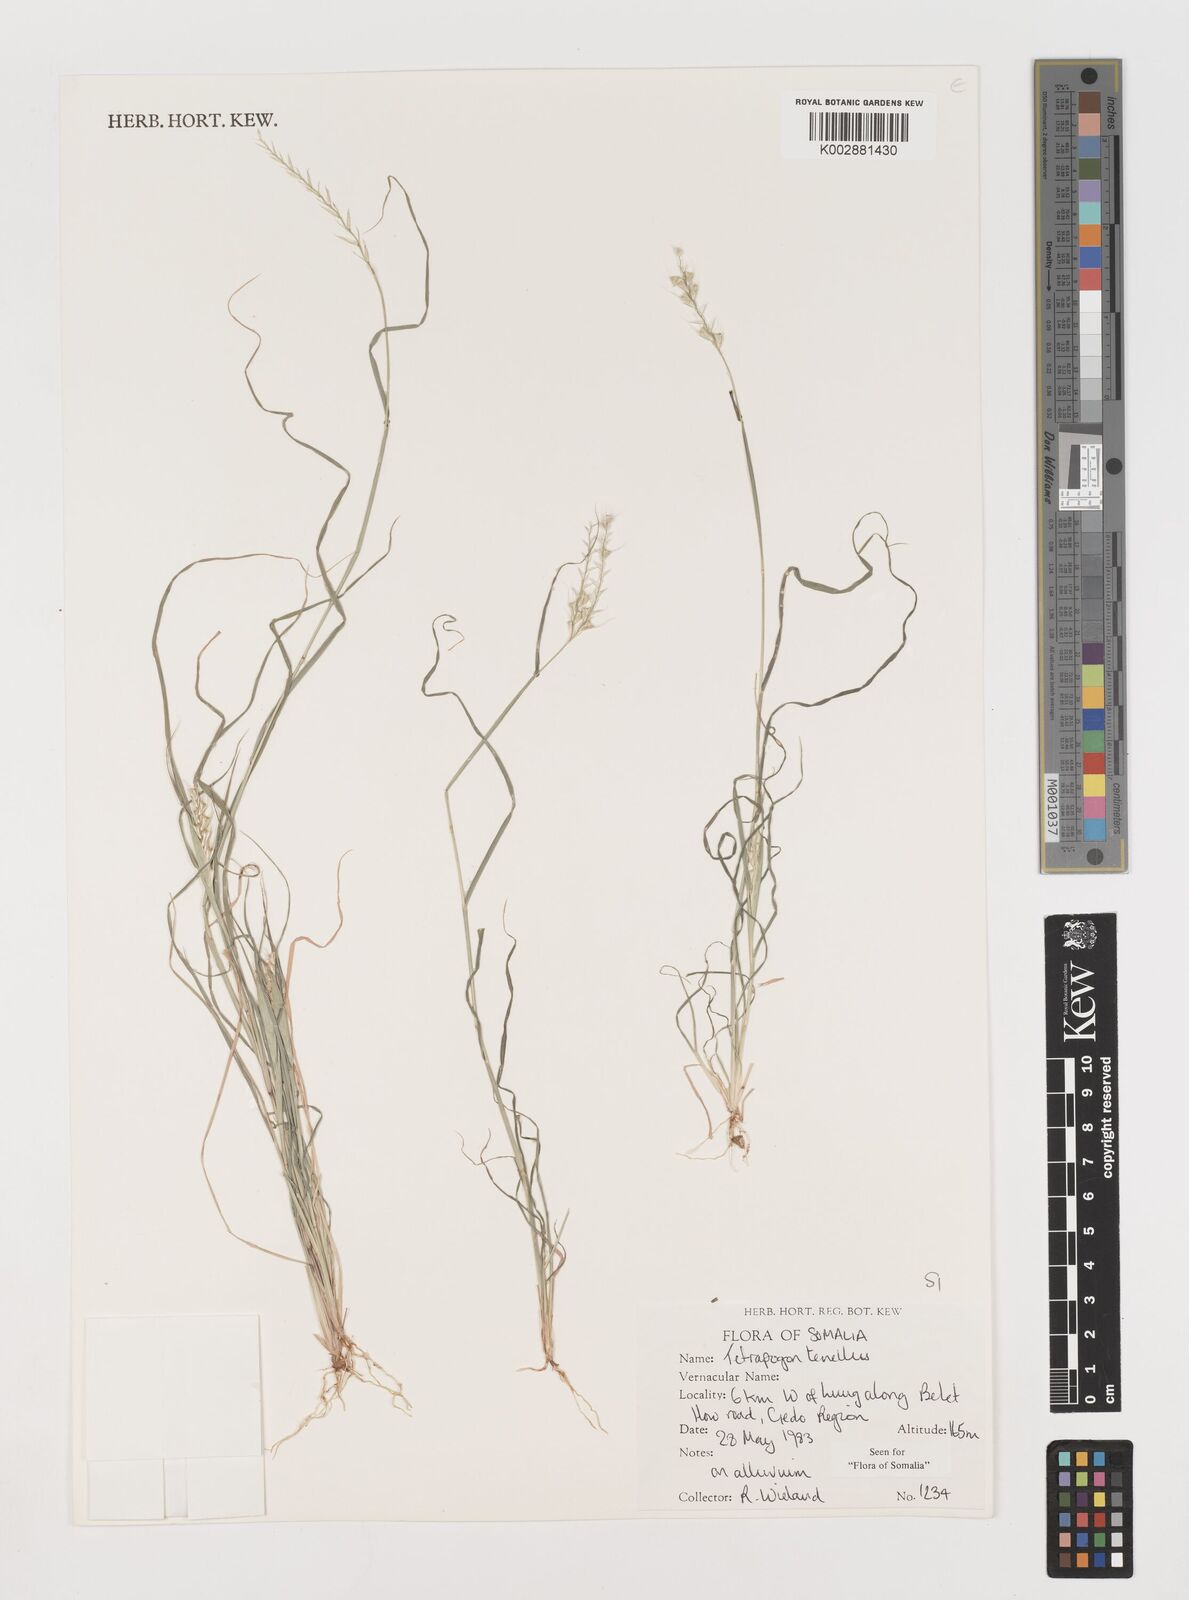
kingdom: Plantae
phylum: Tracheophyta
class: Liliopsida
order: Poales
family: Poaceae
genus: Tetrapogon
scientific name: Tetrapogon tenellus
